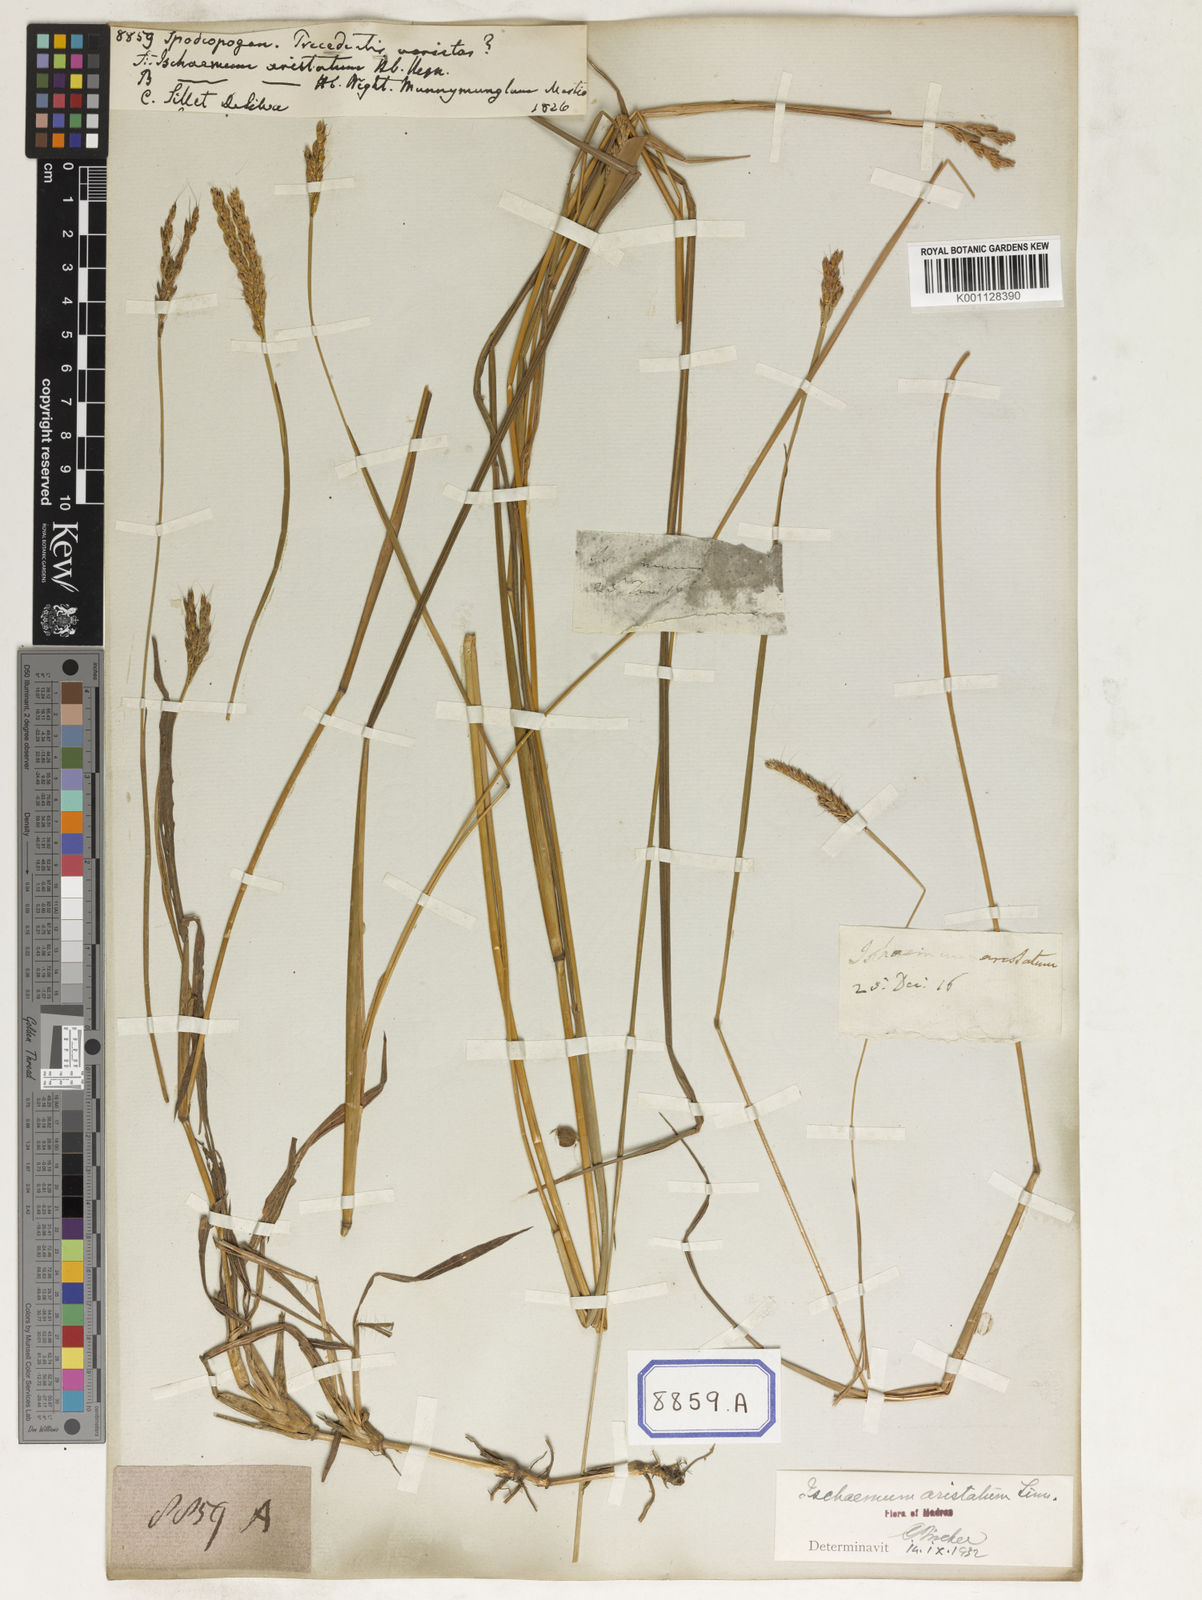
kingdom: Plantae
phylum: Tracheophyta
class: Liliopsida
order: Poales
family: Poaceae
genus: Spodiopogon
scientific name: Spodiopogon
